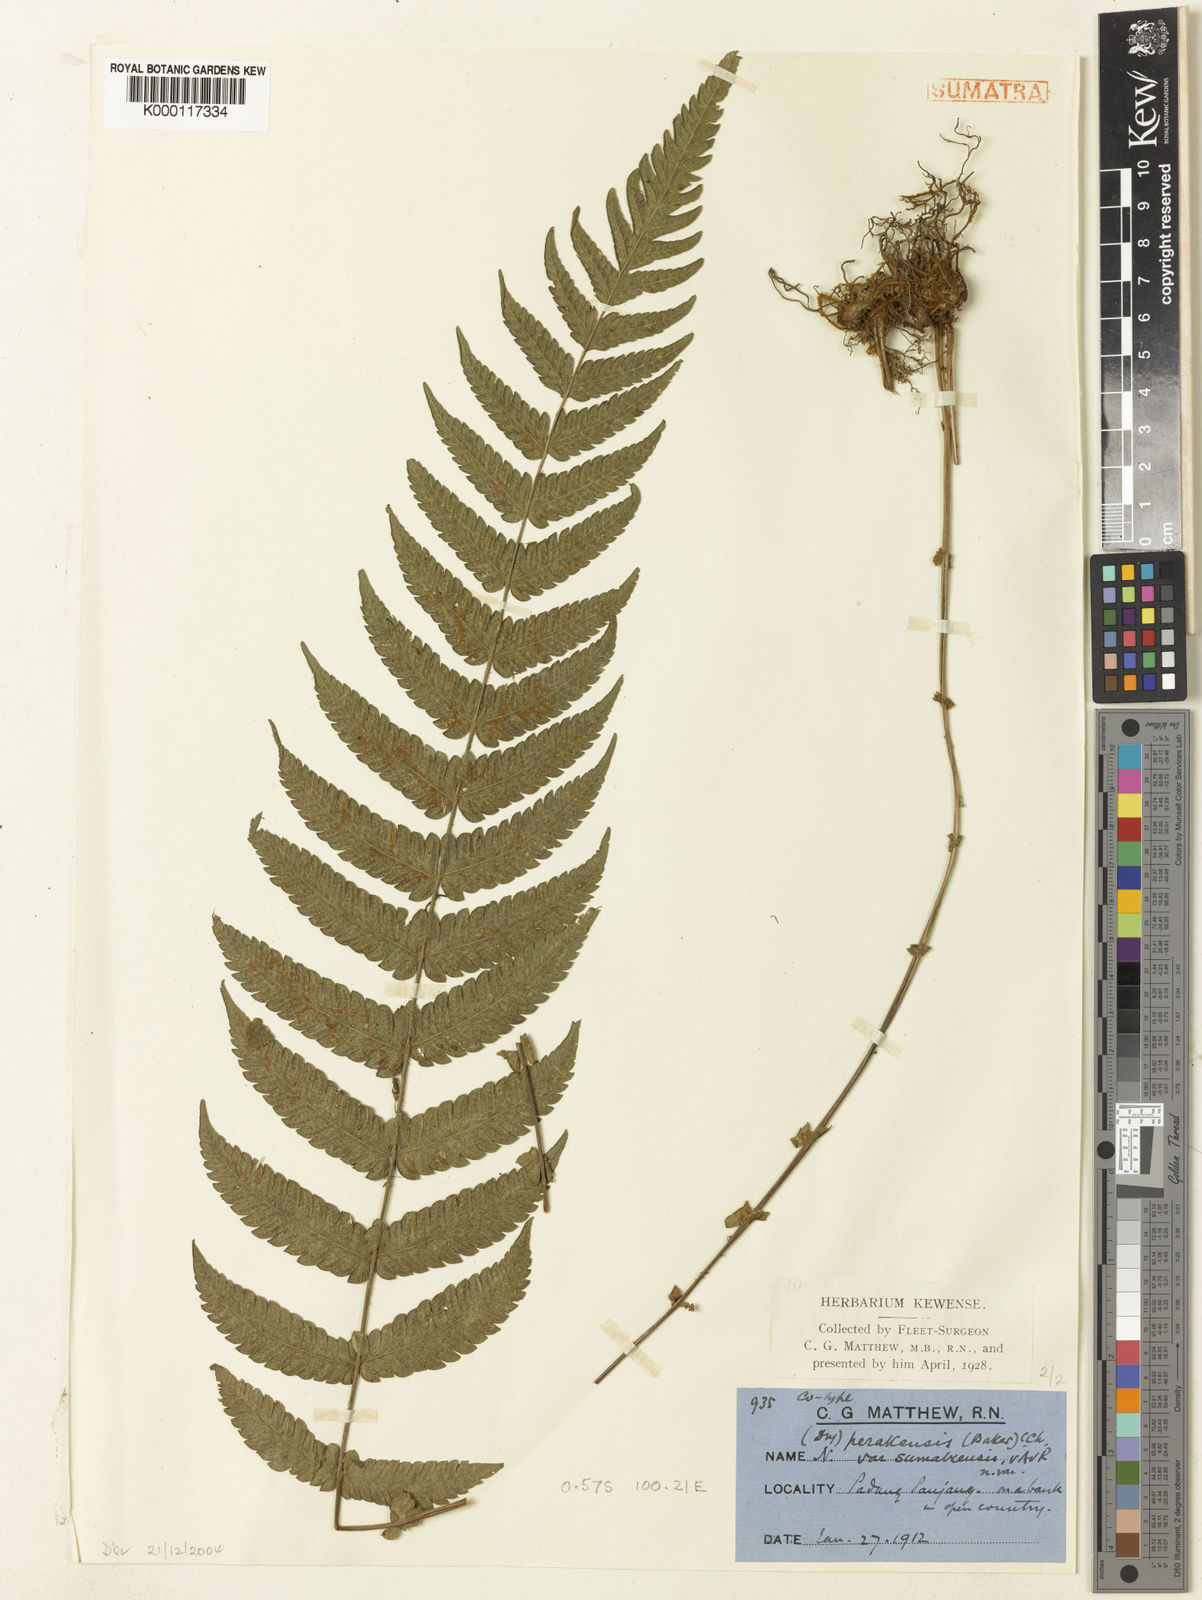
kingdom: Plantae
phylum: Tracheophyta
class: Polypodiopsida
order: Polypodiales
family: Thelypteridaceae
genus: Sphaerostephanos
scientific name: Sphaerostephanos appendiculatus
